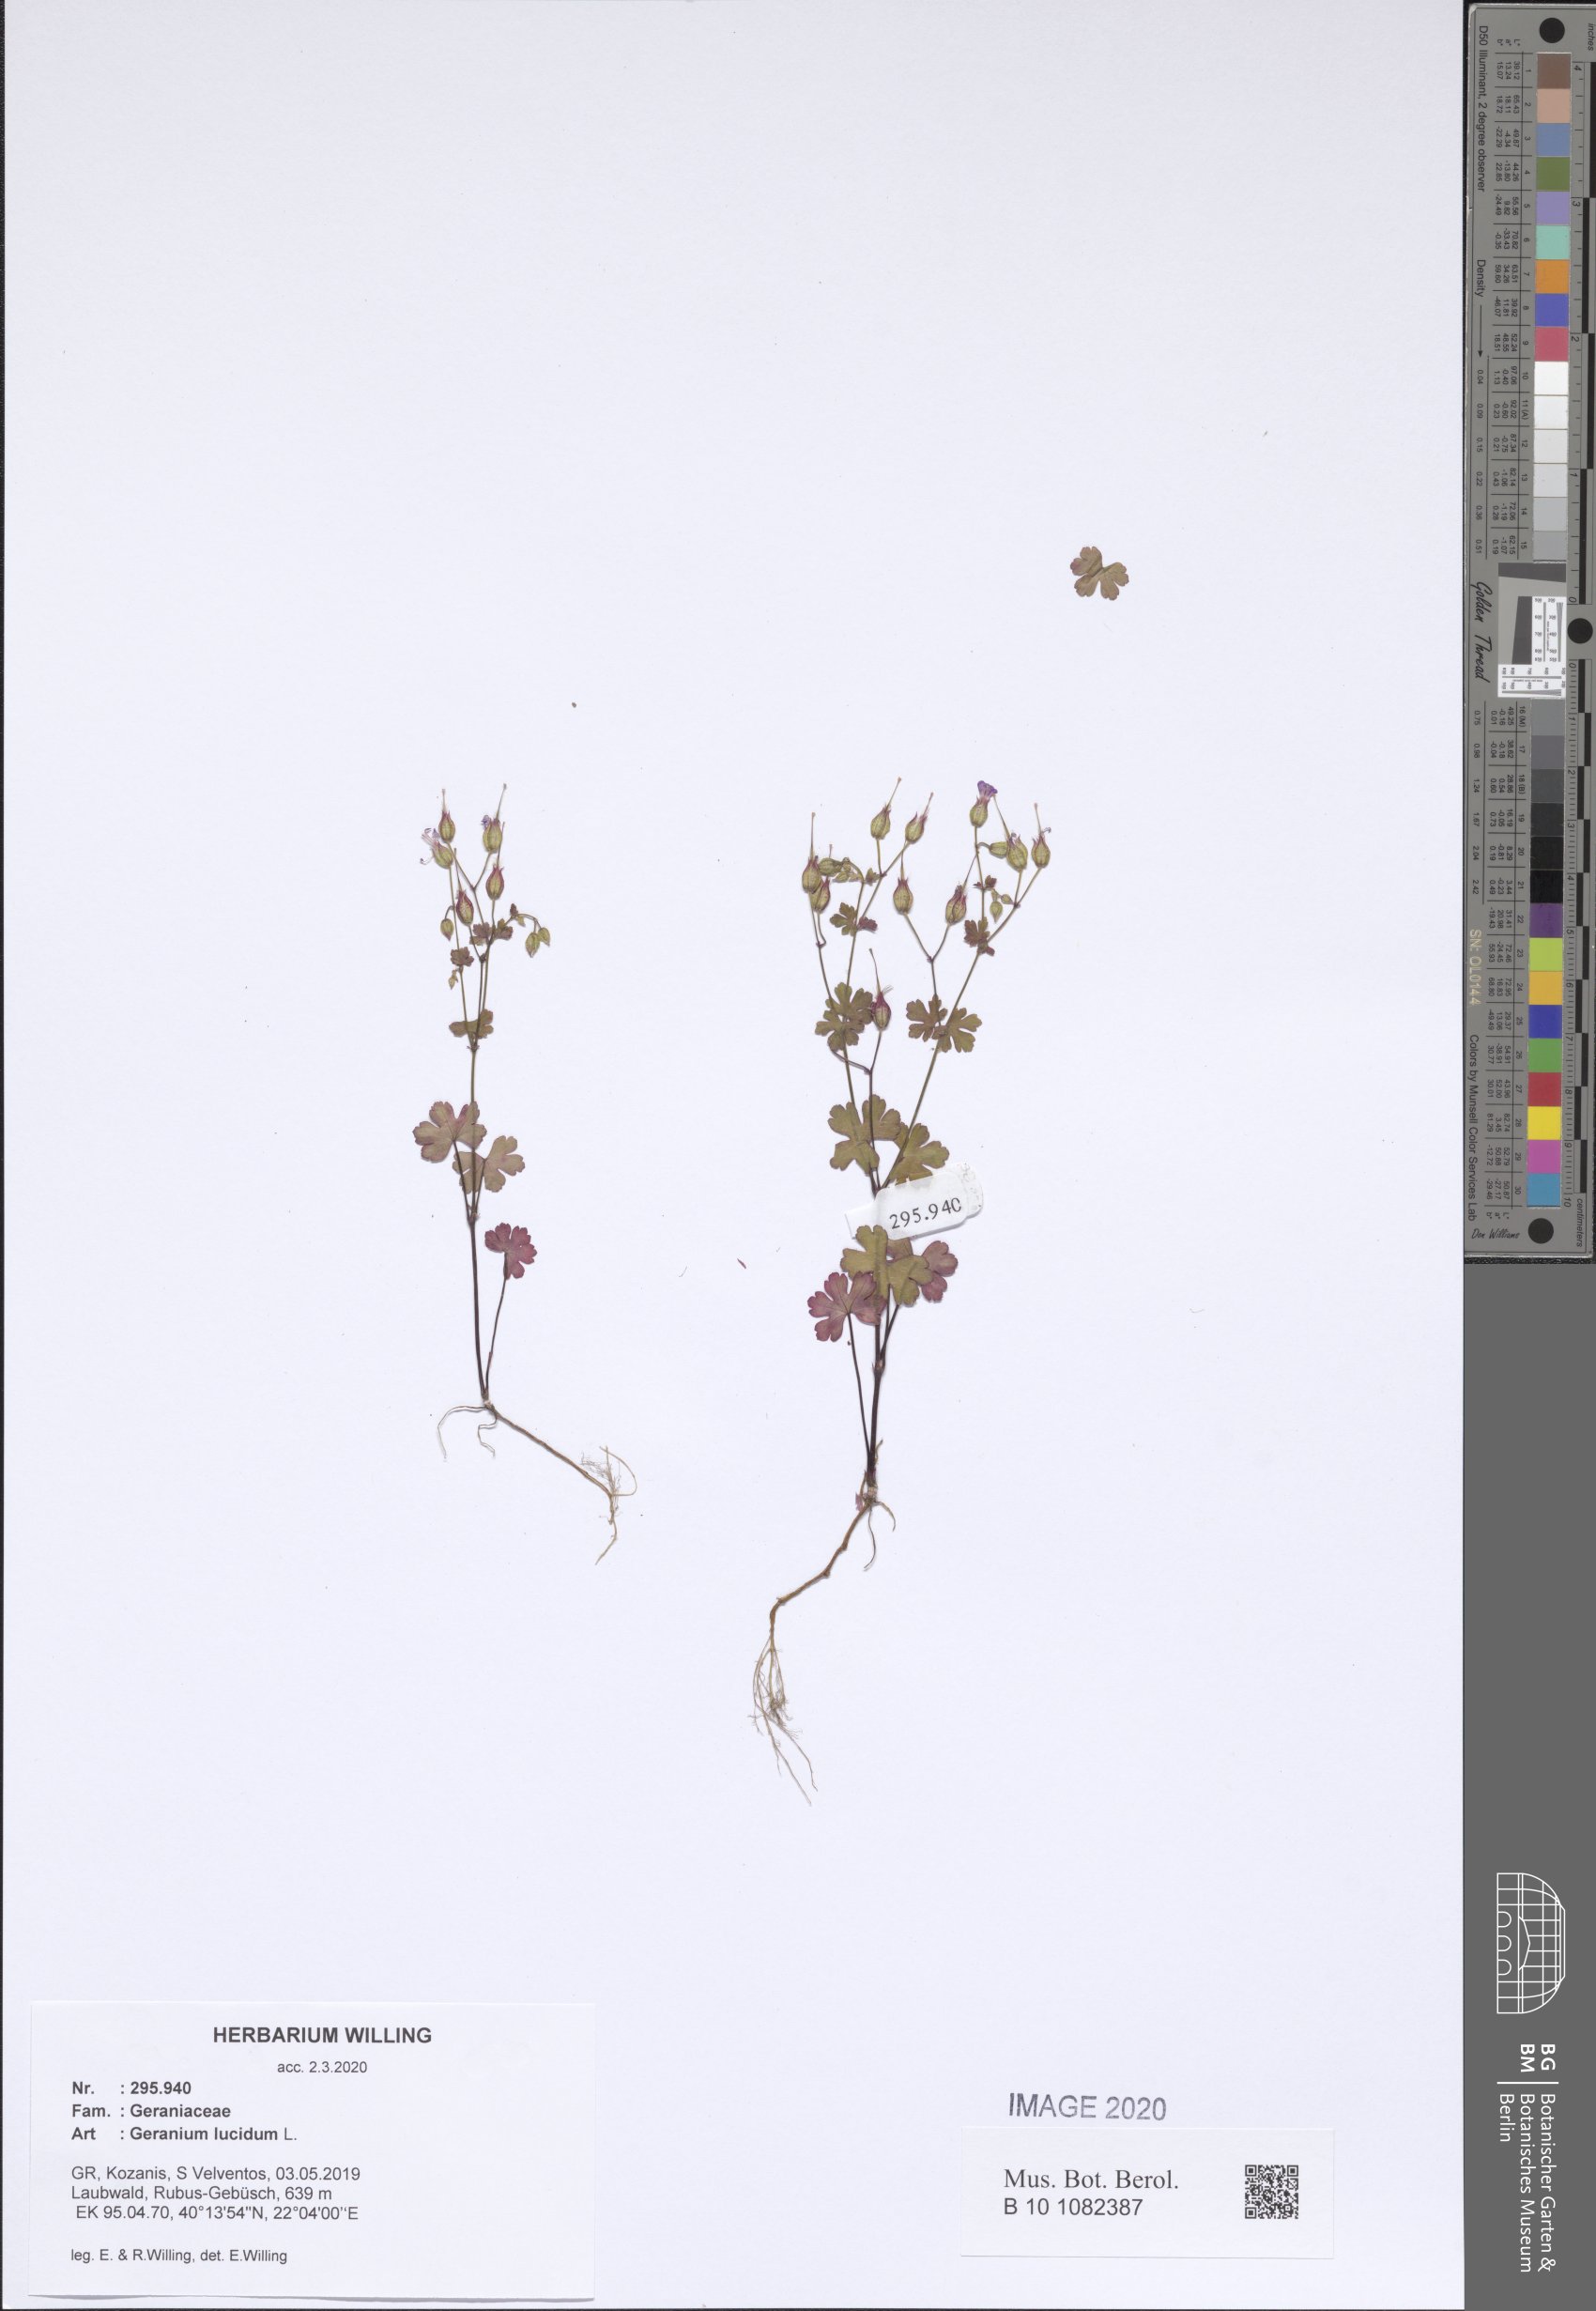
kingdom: Plantae
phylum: Tracheophyta
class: Magnoliopsida
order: Geraniales
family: Geraniaceae
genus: Geranium
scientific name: Geranium lucidum
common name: Shining crane's-bill
